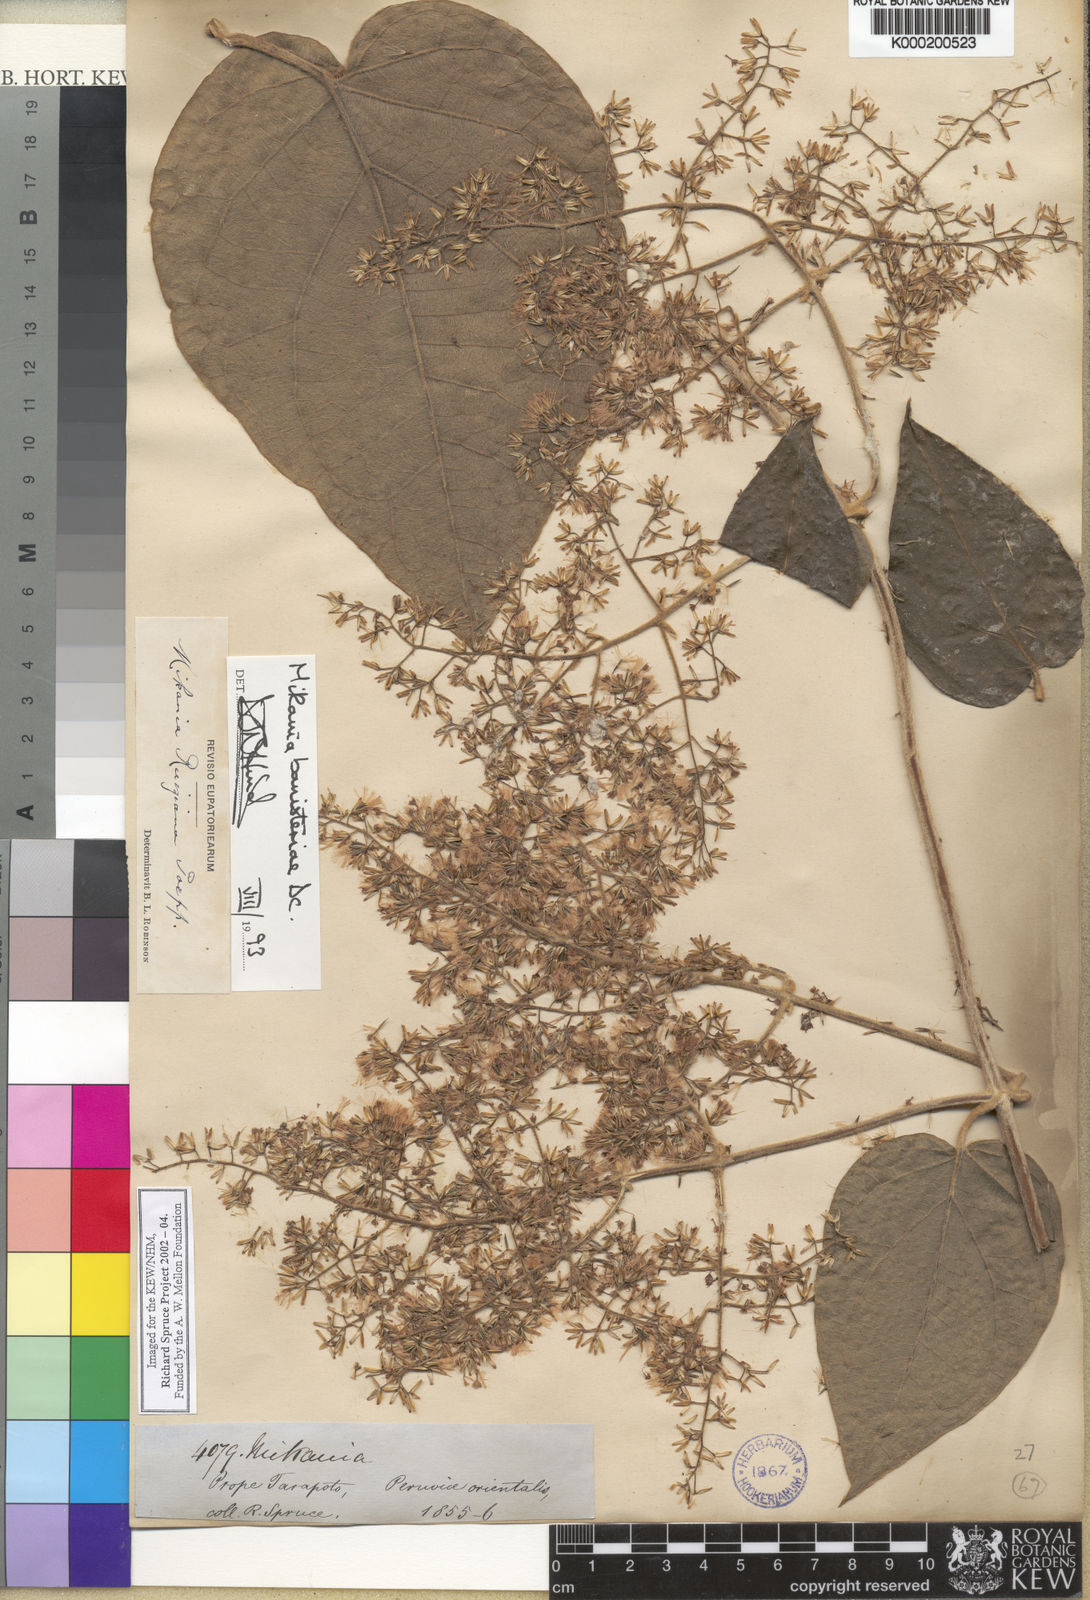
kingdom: Plantae
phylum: Tracheophyta
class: Magnoliopsida
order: Asterales
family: Asteraceae
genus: Mikania
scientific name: Mikania banisteriae
